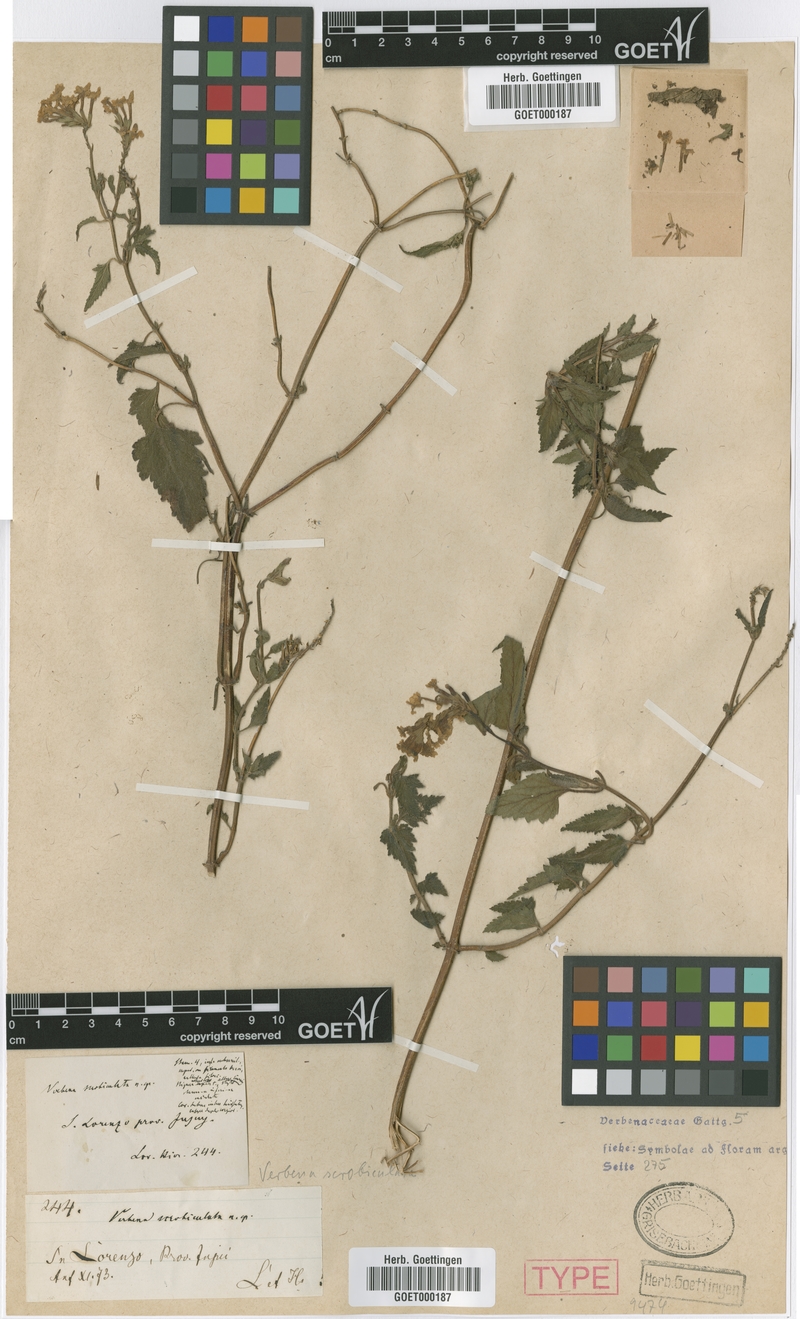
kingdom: Plantae
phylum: Tracheophyta
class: Magnoliopsida
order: Lamiales
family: Verbenaceae
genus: Verbena
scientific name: Verbena scrobiculata
